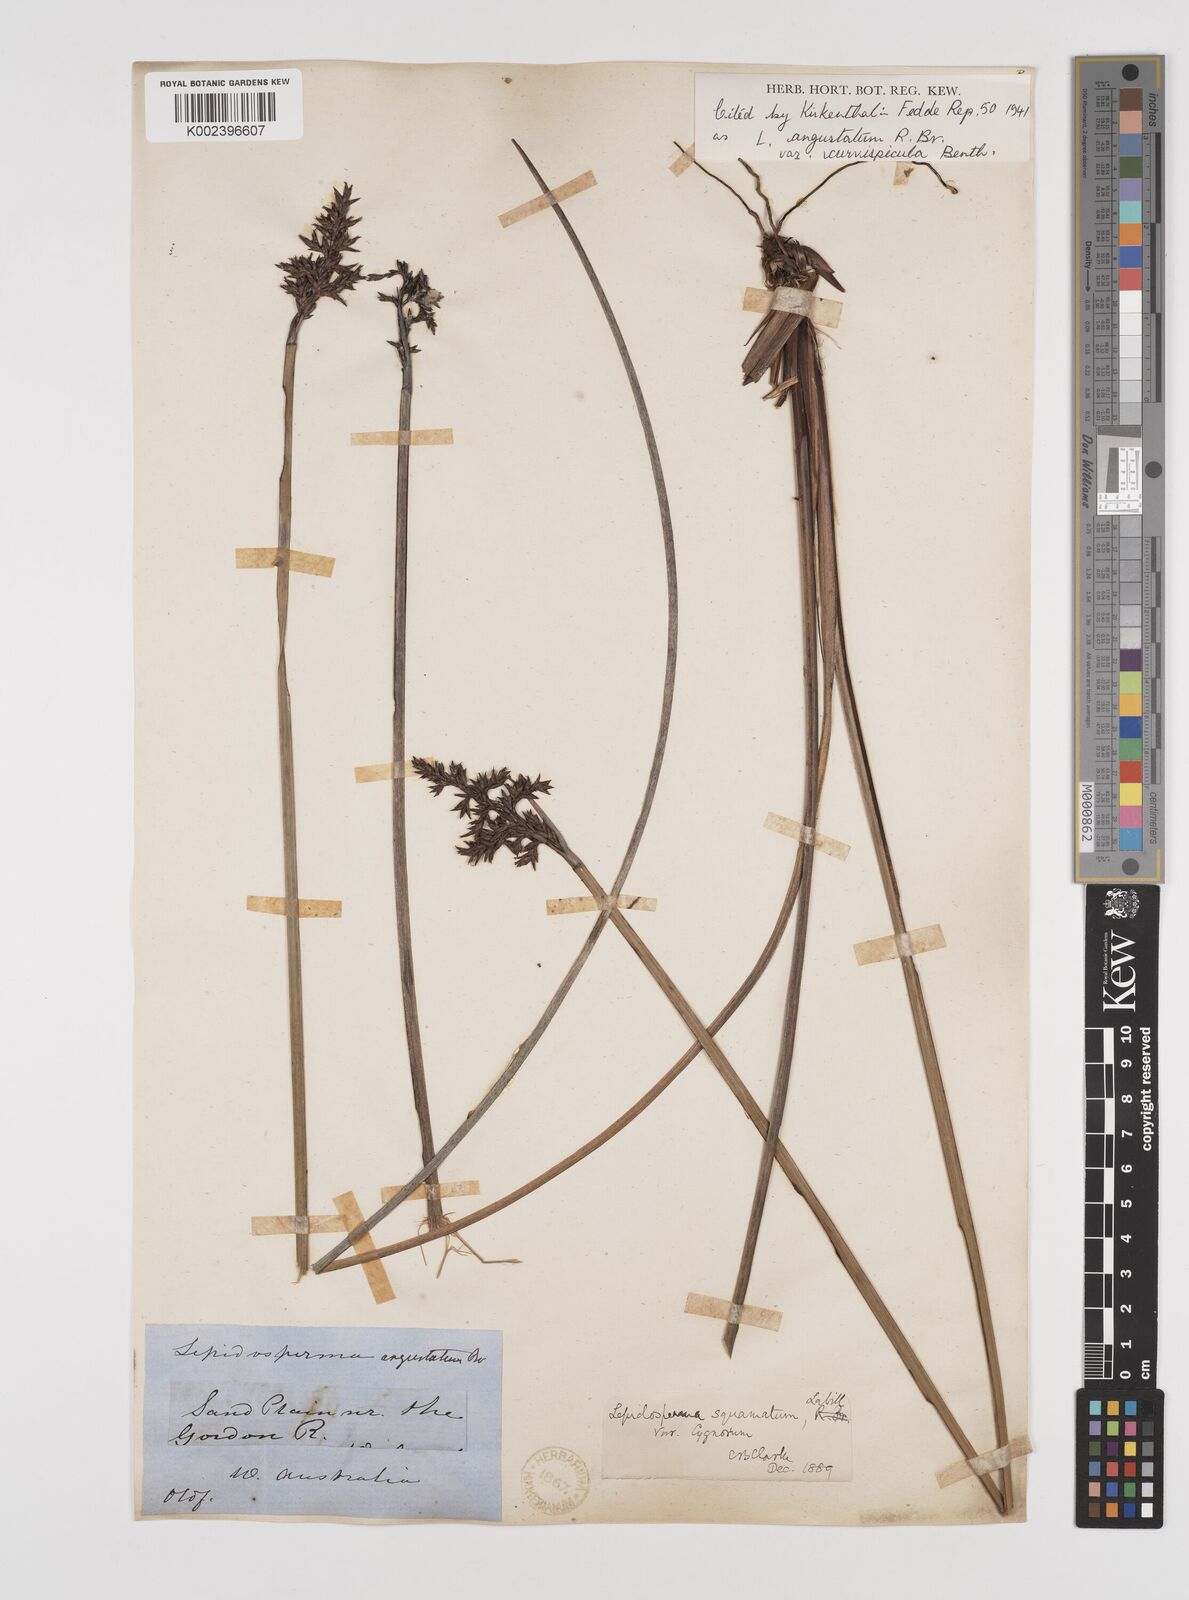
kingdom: Plantae
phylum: Tracheophyta
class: Liliopsida
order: Poales
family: Cyperaceae
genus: Lepidosperma
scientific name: Lepidosperma angustatum
